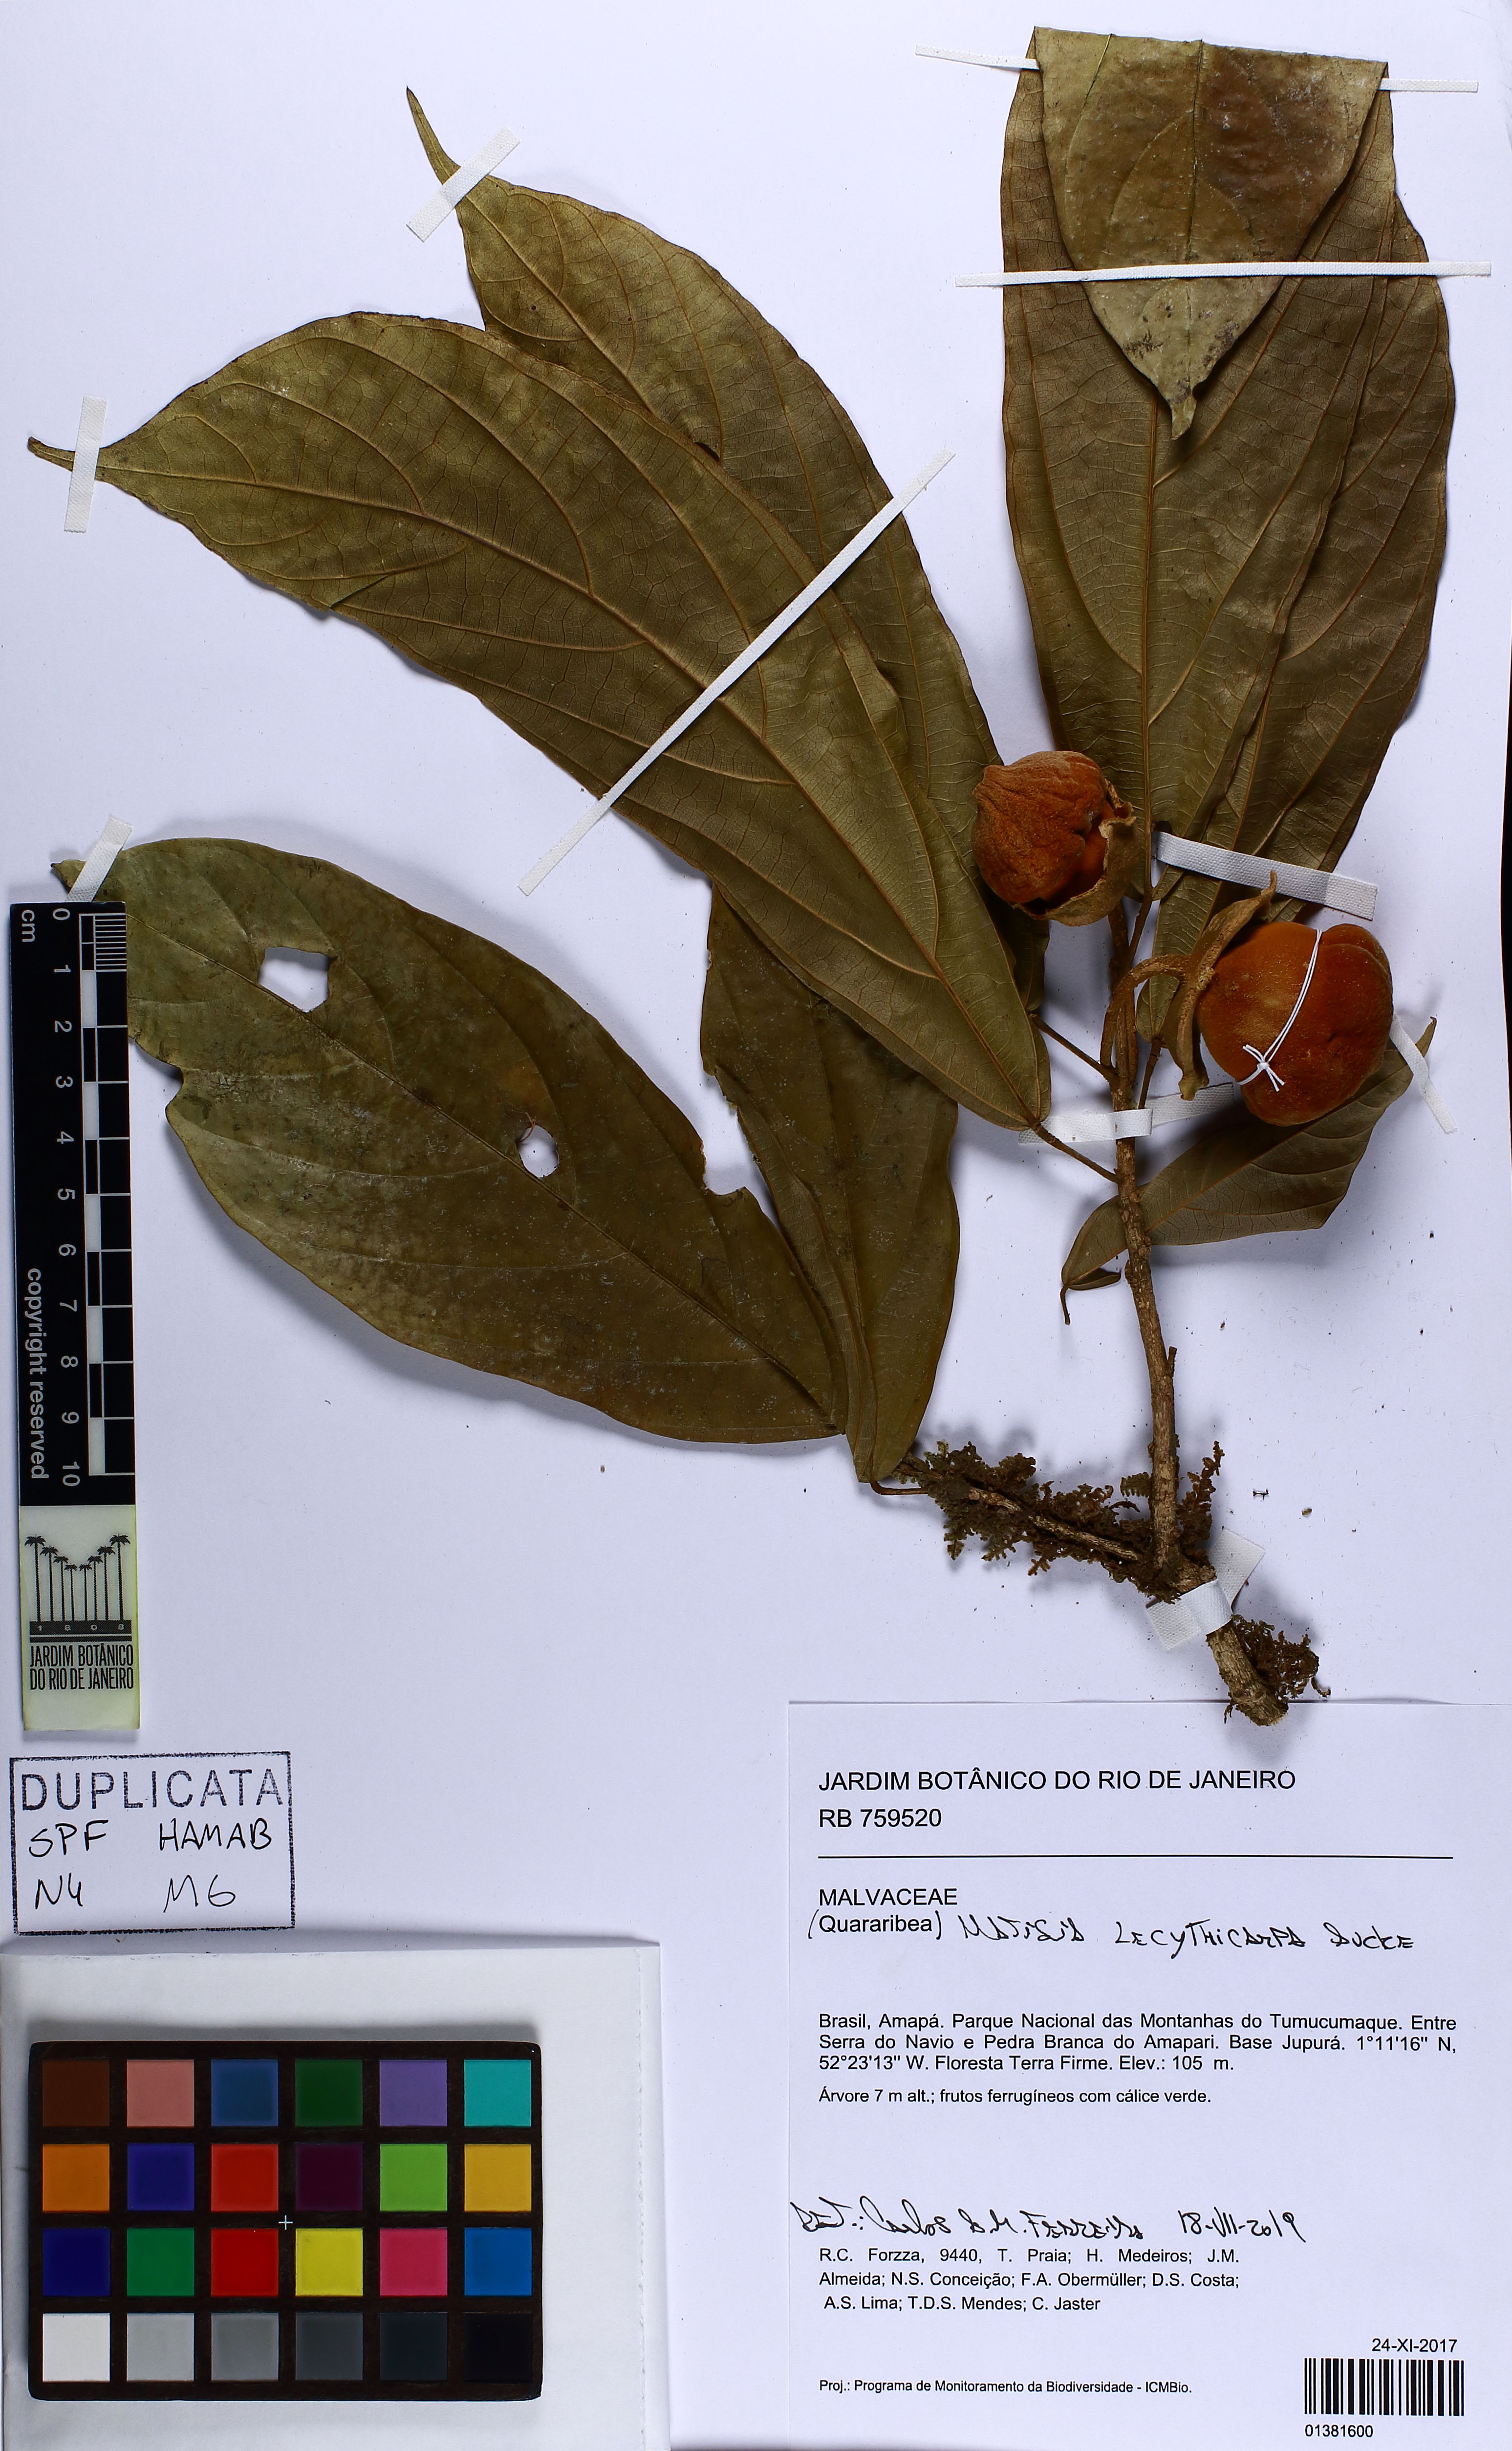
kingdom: Plantae
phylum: Tracheophyta
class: Magnoliopsida
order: Malvales
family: Malvaceae
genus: Matisia
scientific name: Matisia lecythicarpa
